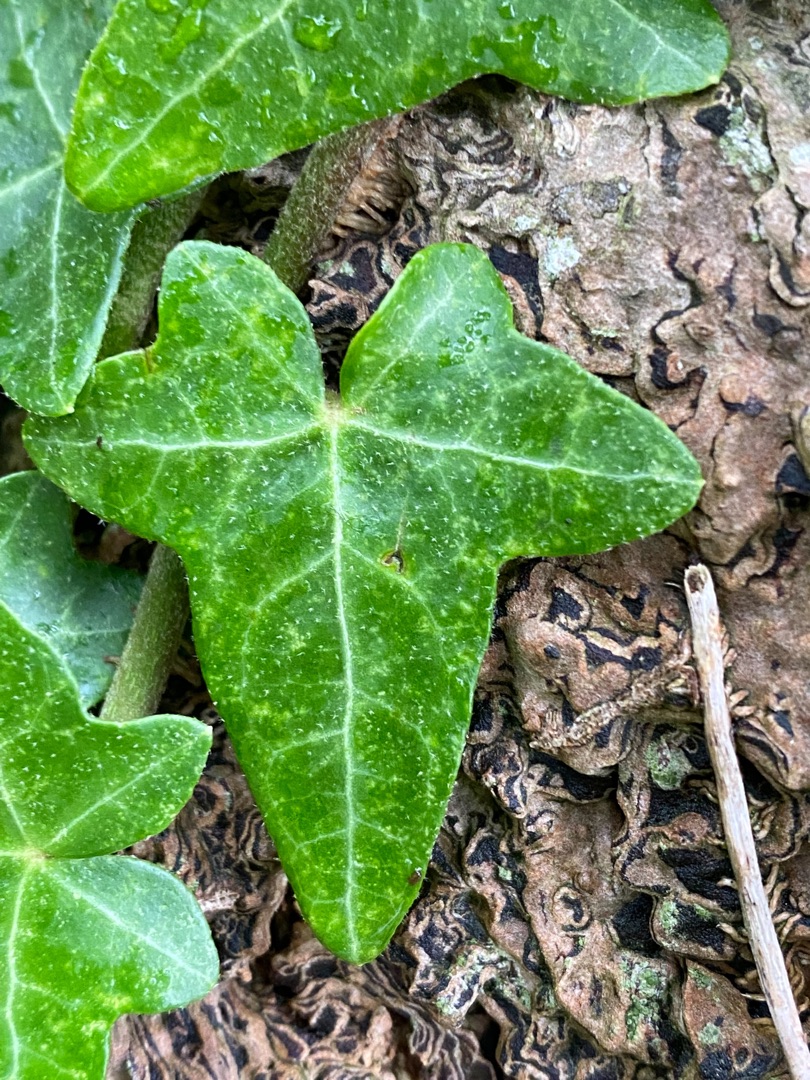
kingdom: Plantae
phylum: Tracheophyta
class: Magnoliopsida
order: Apiales
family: Araliaceae
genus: Hedera
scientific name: Hedera helix
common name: Vedbend
